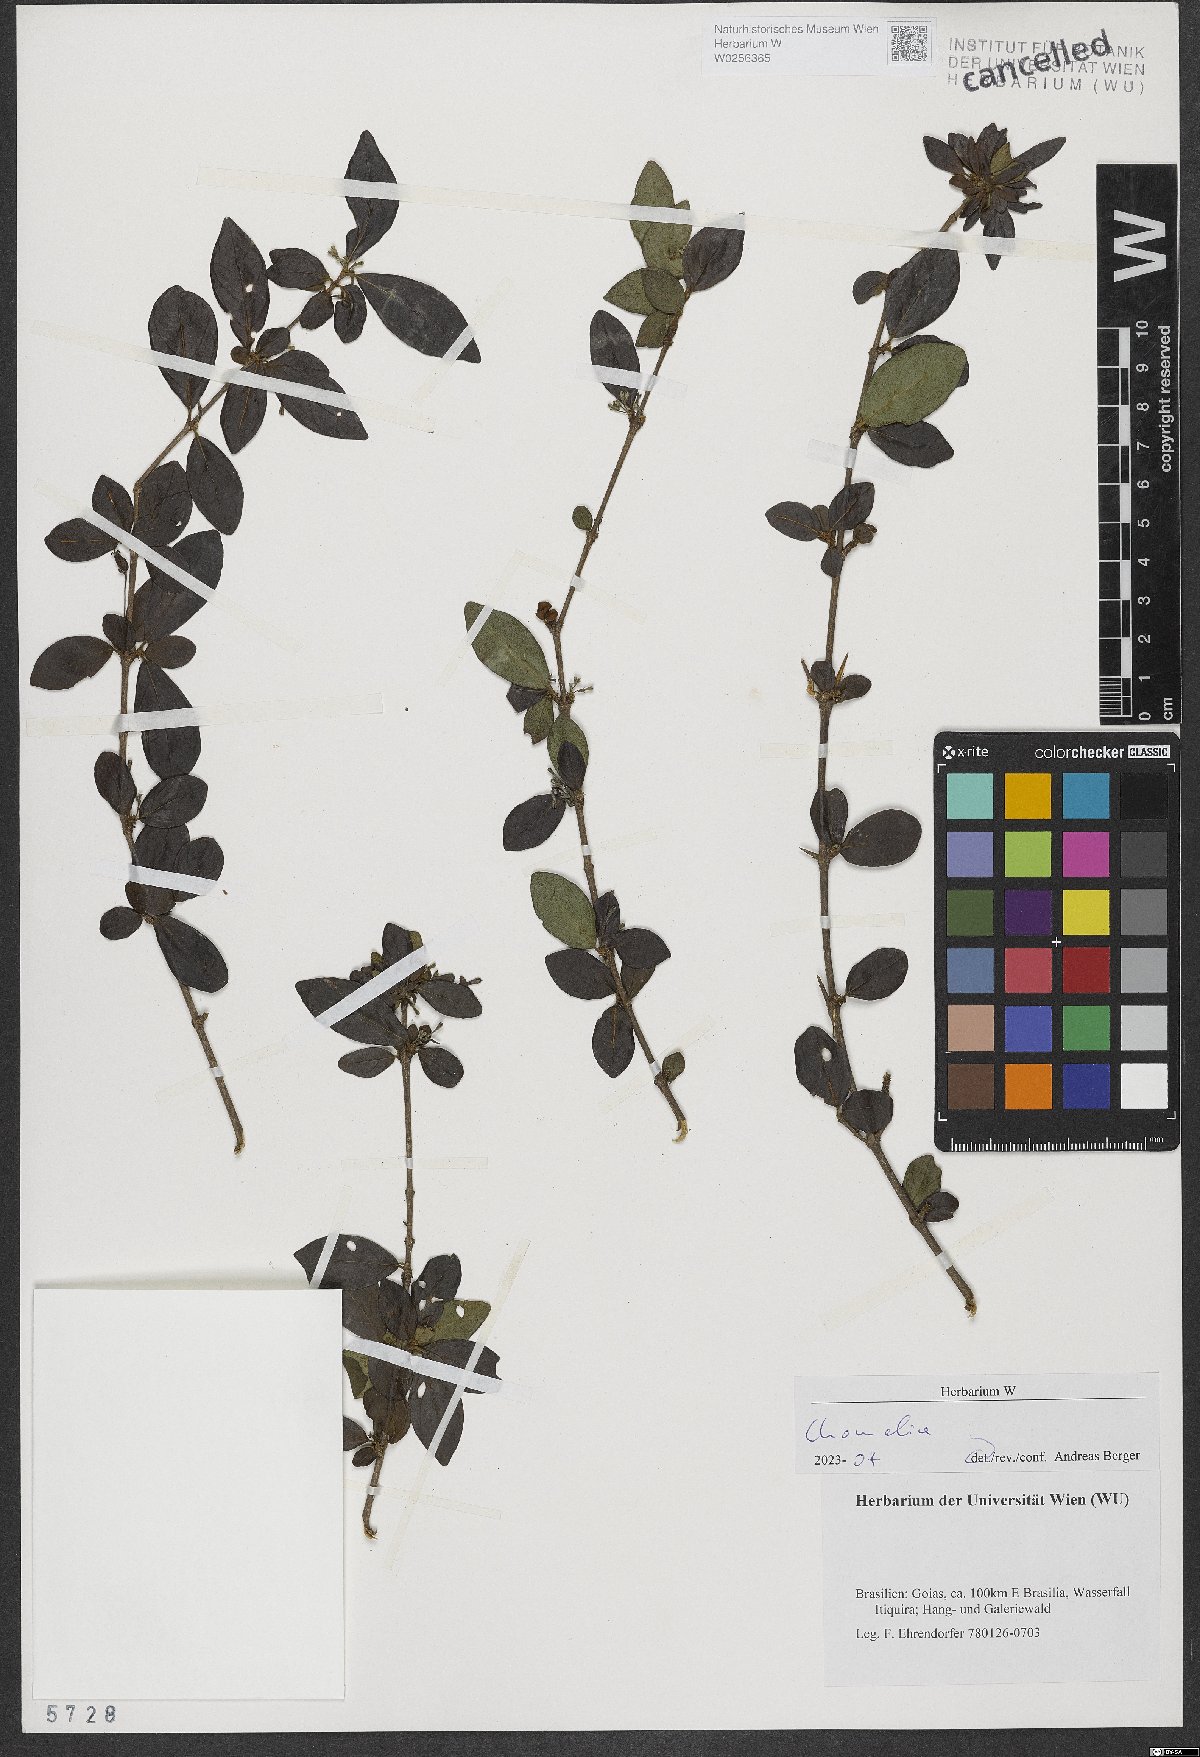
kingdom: Plantae
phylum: Tracheophyta
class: Magnoliopsida
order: Gentianales
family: Rubiaceae
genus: Chomelia
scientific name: Chomelia
